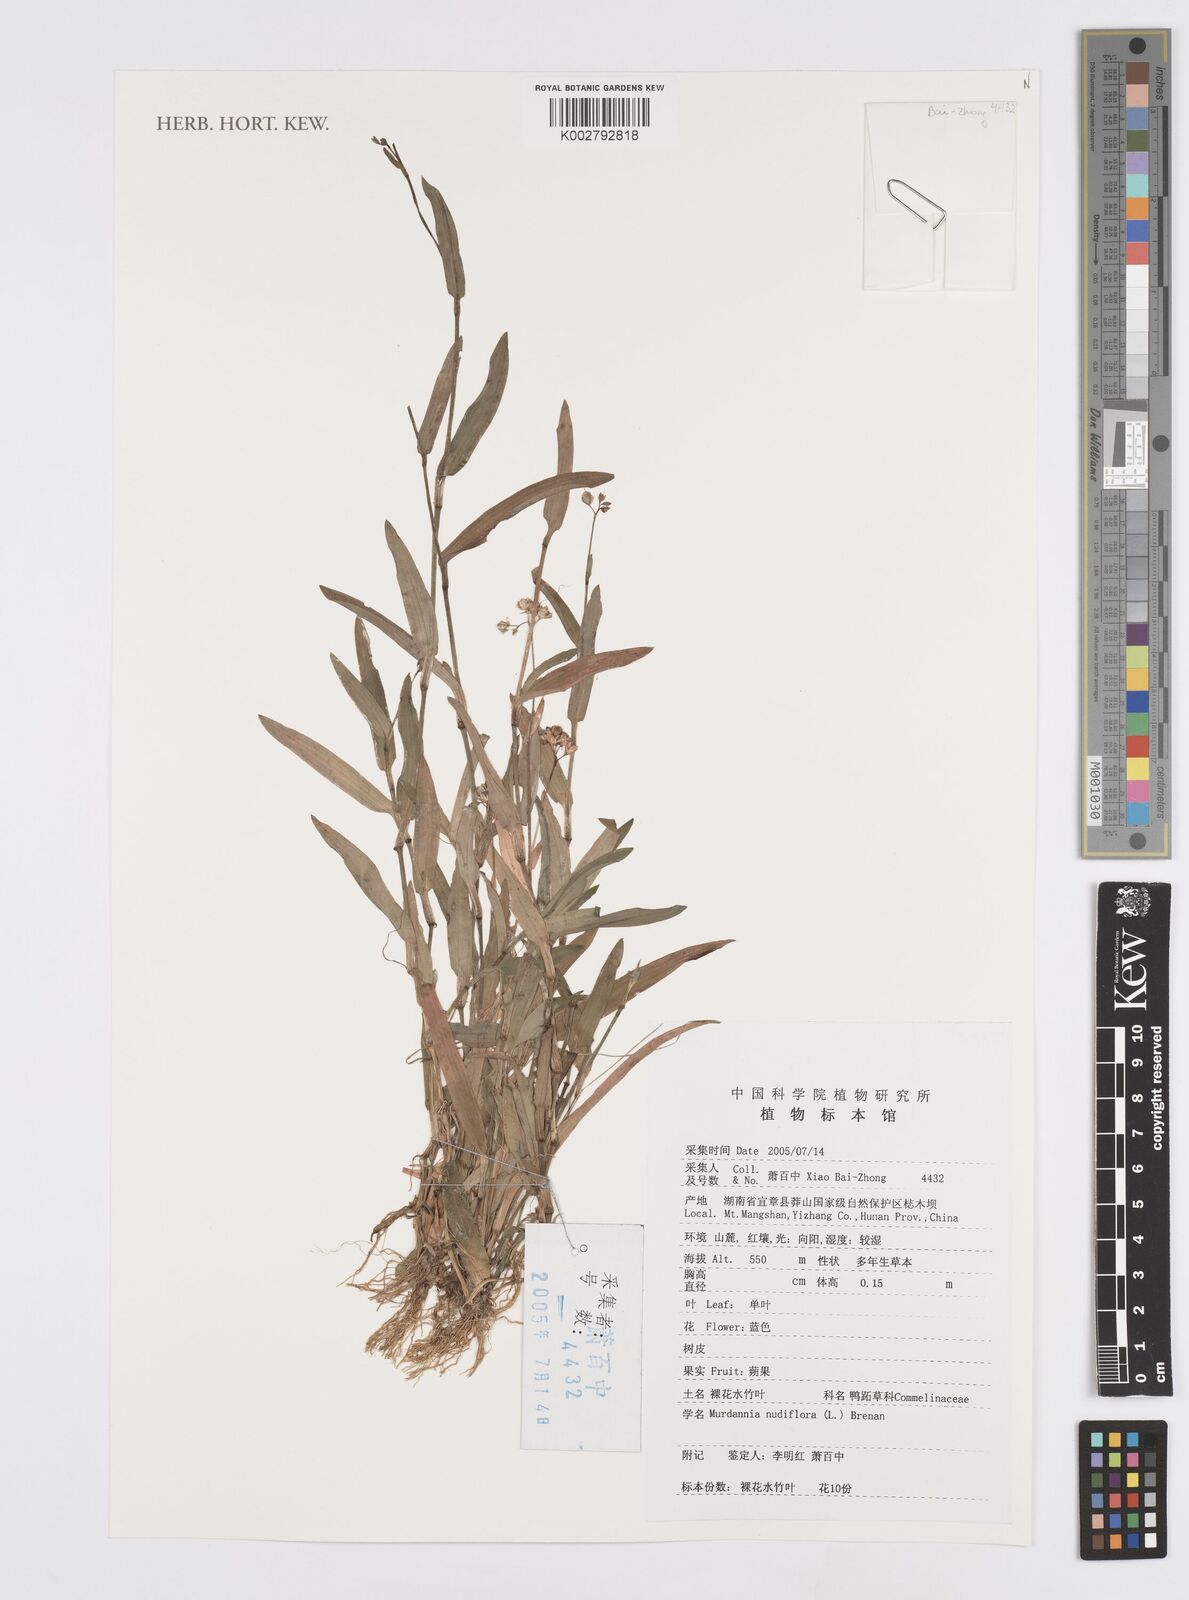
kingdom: Plantae
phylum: Tracheophyta
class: Liliopsida
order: Commelinales
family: Commelinaceae
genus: Murdannia
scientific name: Murdannia nudiflora
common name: Nakedstem dewflower
